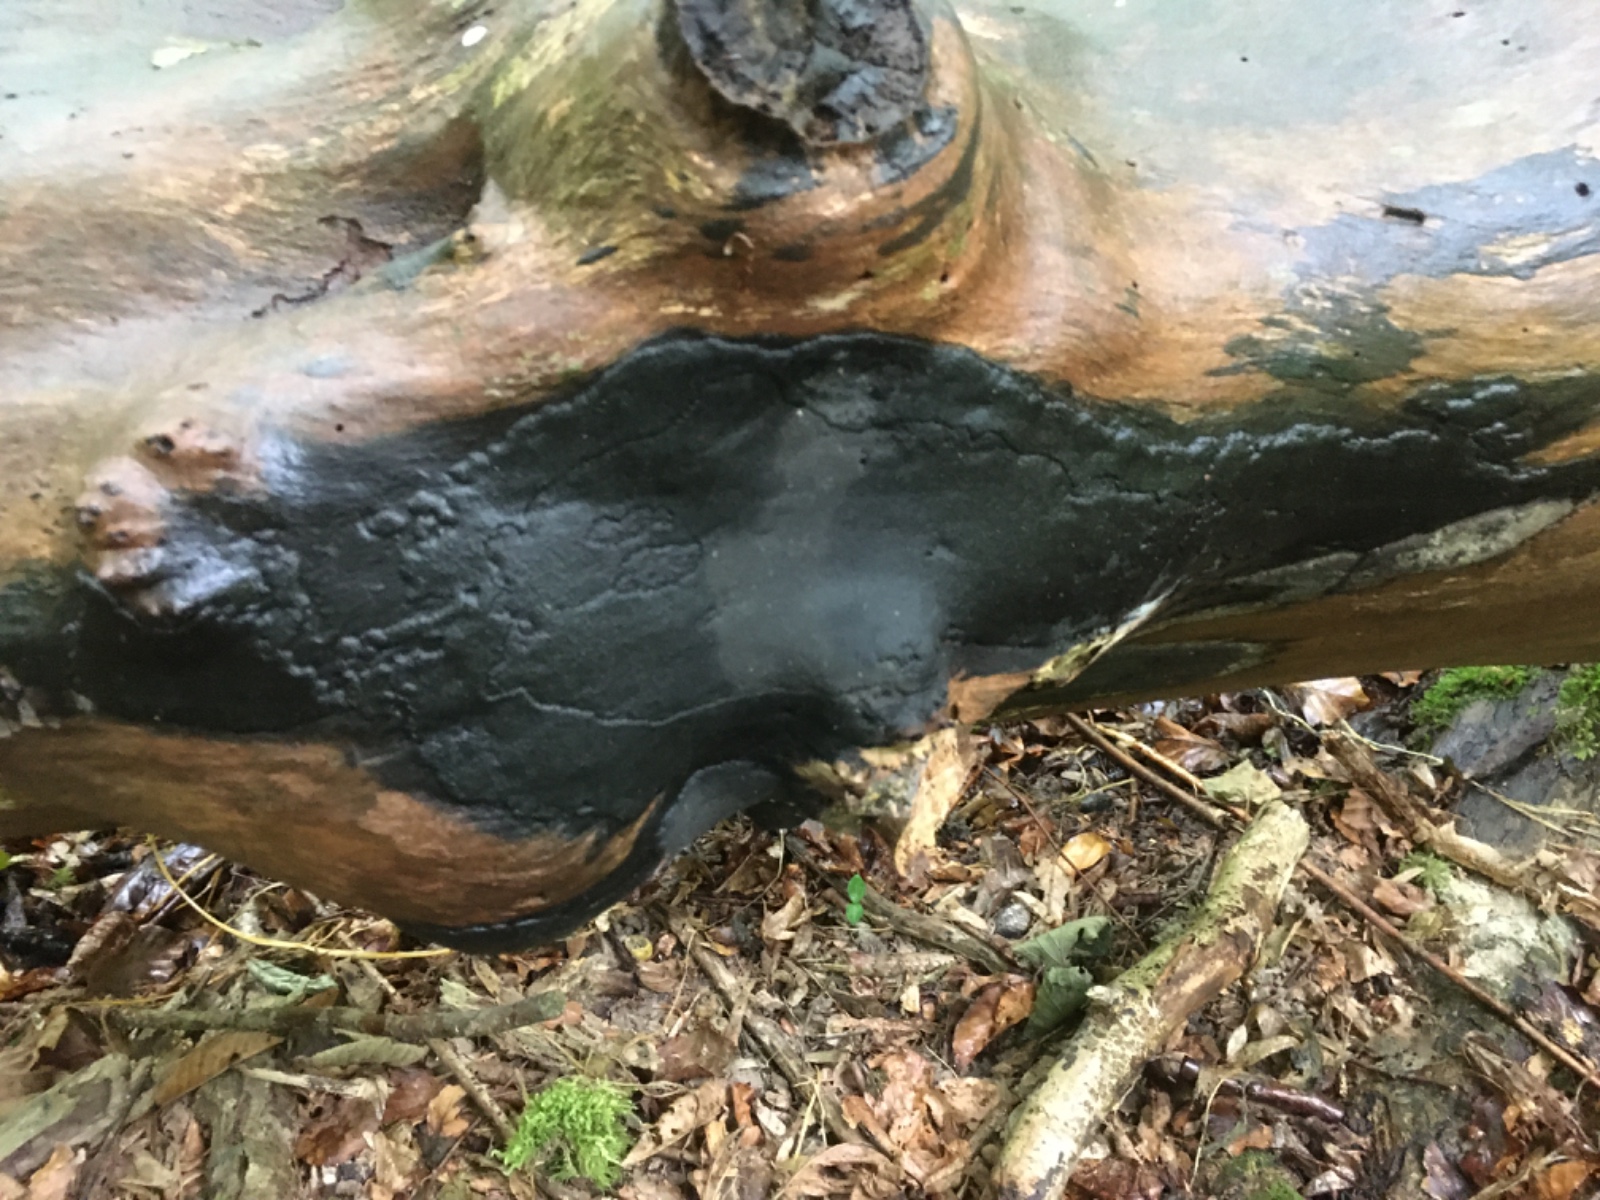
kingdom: Fungi
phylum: Ascomycota
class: Sordariomycetes
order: Xylariales
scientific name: Xylariales
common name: stødsvampordenen
